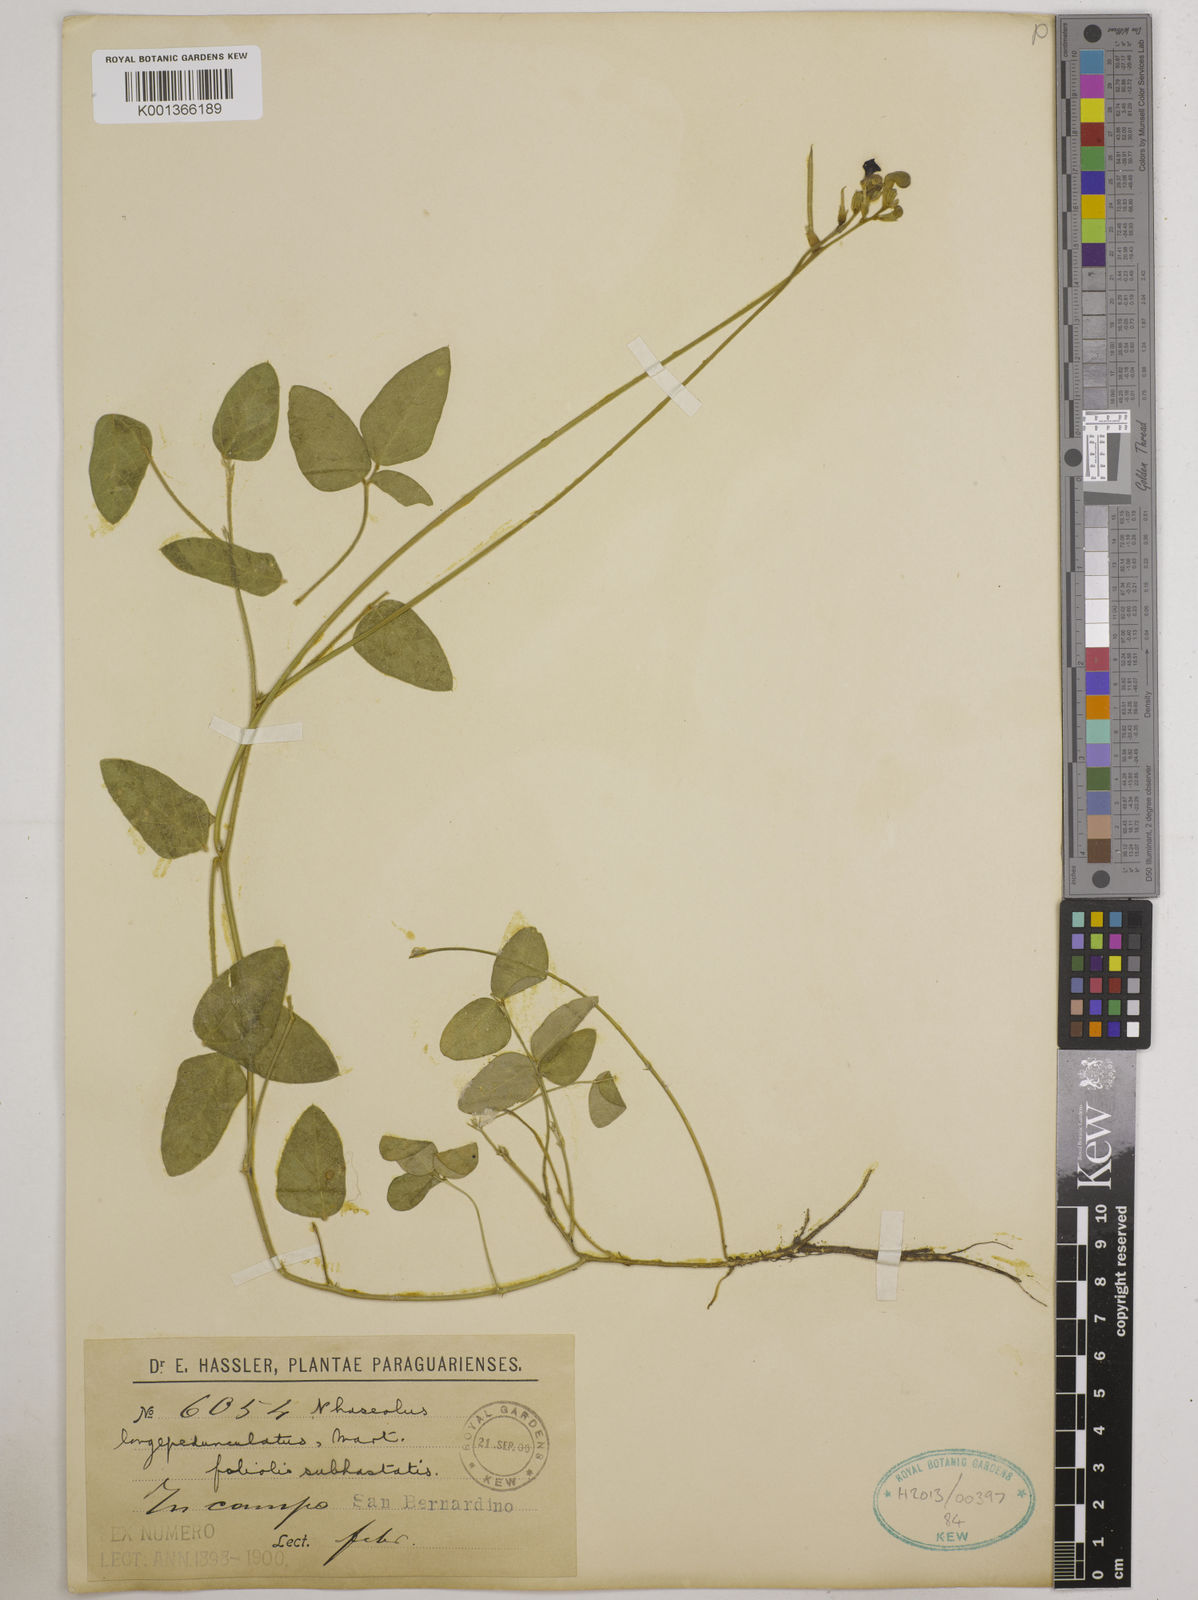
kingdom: Plantae
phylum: Tracheophyta
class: Magnoliopsida
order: Fabales
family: Fabaceae
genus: Macroptilium
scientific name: Macroptilium longepedunculatum
